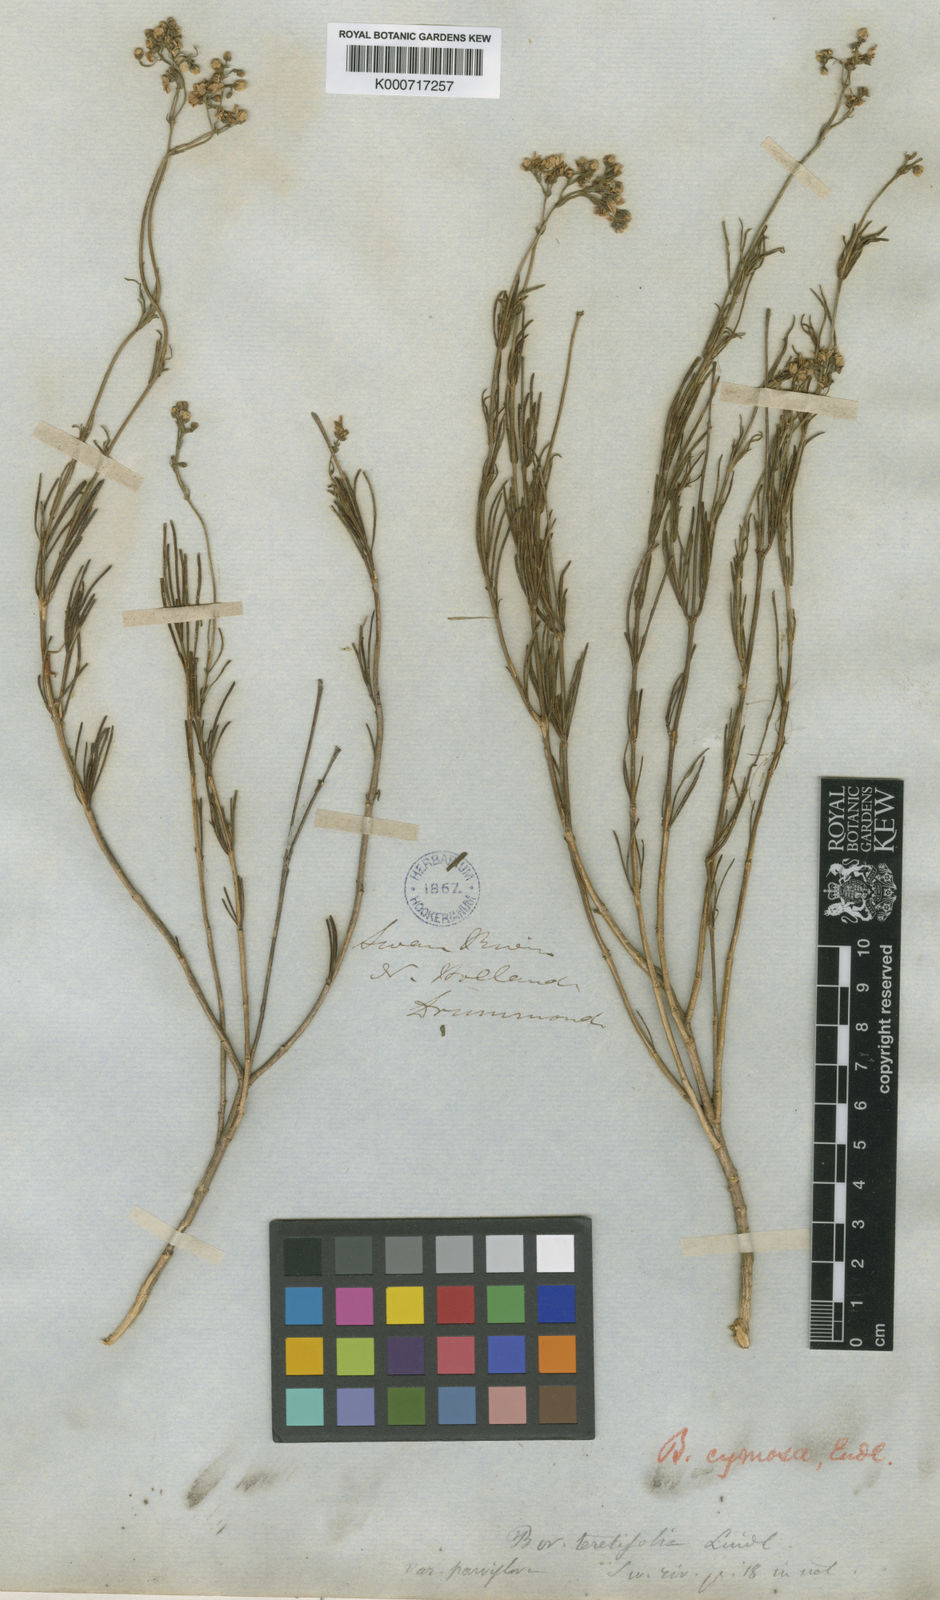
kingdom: Plantae
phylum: Tracheophyta
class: Magnoliopsida
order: Sapindales
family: Rutaceae
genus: Boronia
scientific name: Boronia cymosa
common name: Granite boronia
